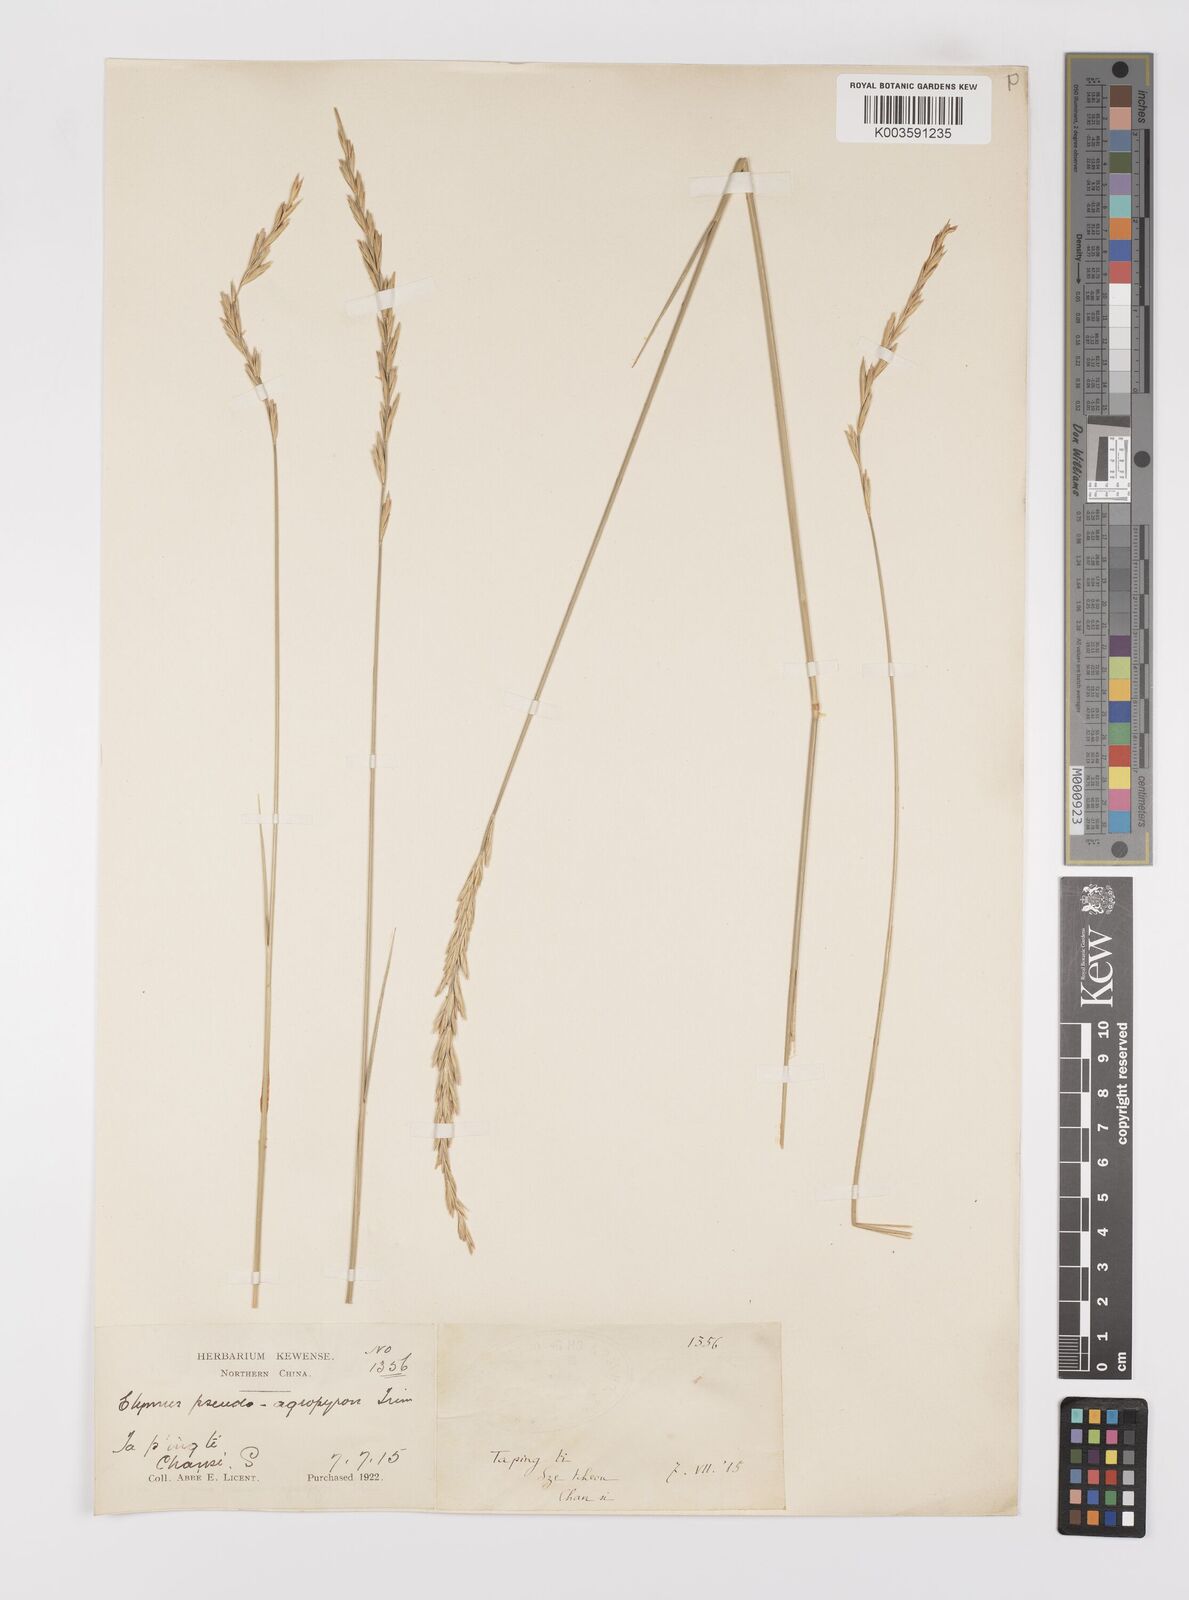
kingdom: Plantae
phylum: Tracheophyta
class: Liliopsida
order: Poales
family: Poaceae
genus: Leymus
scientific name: Leymus chinensis
